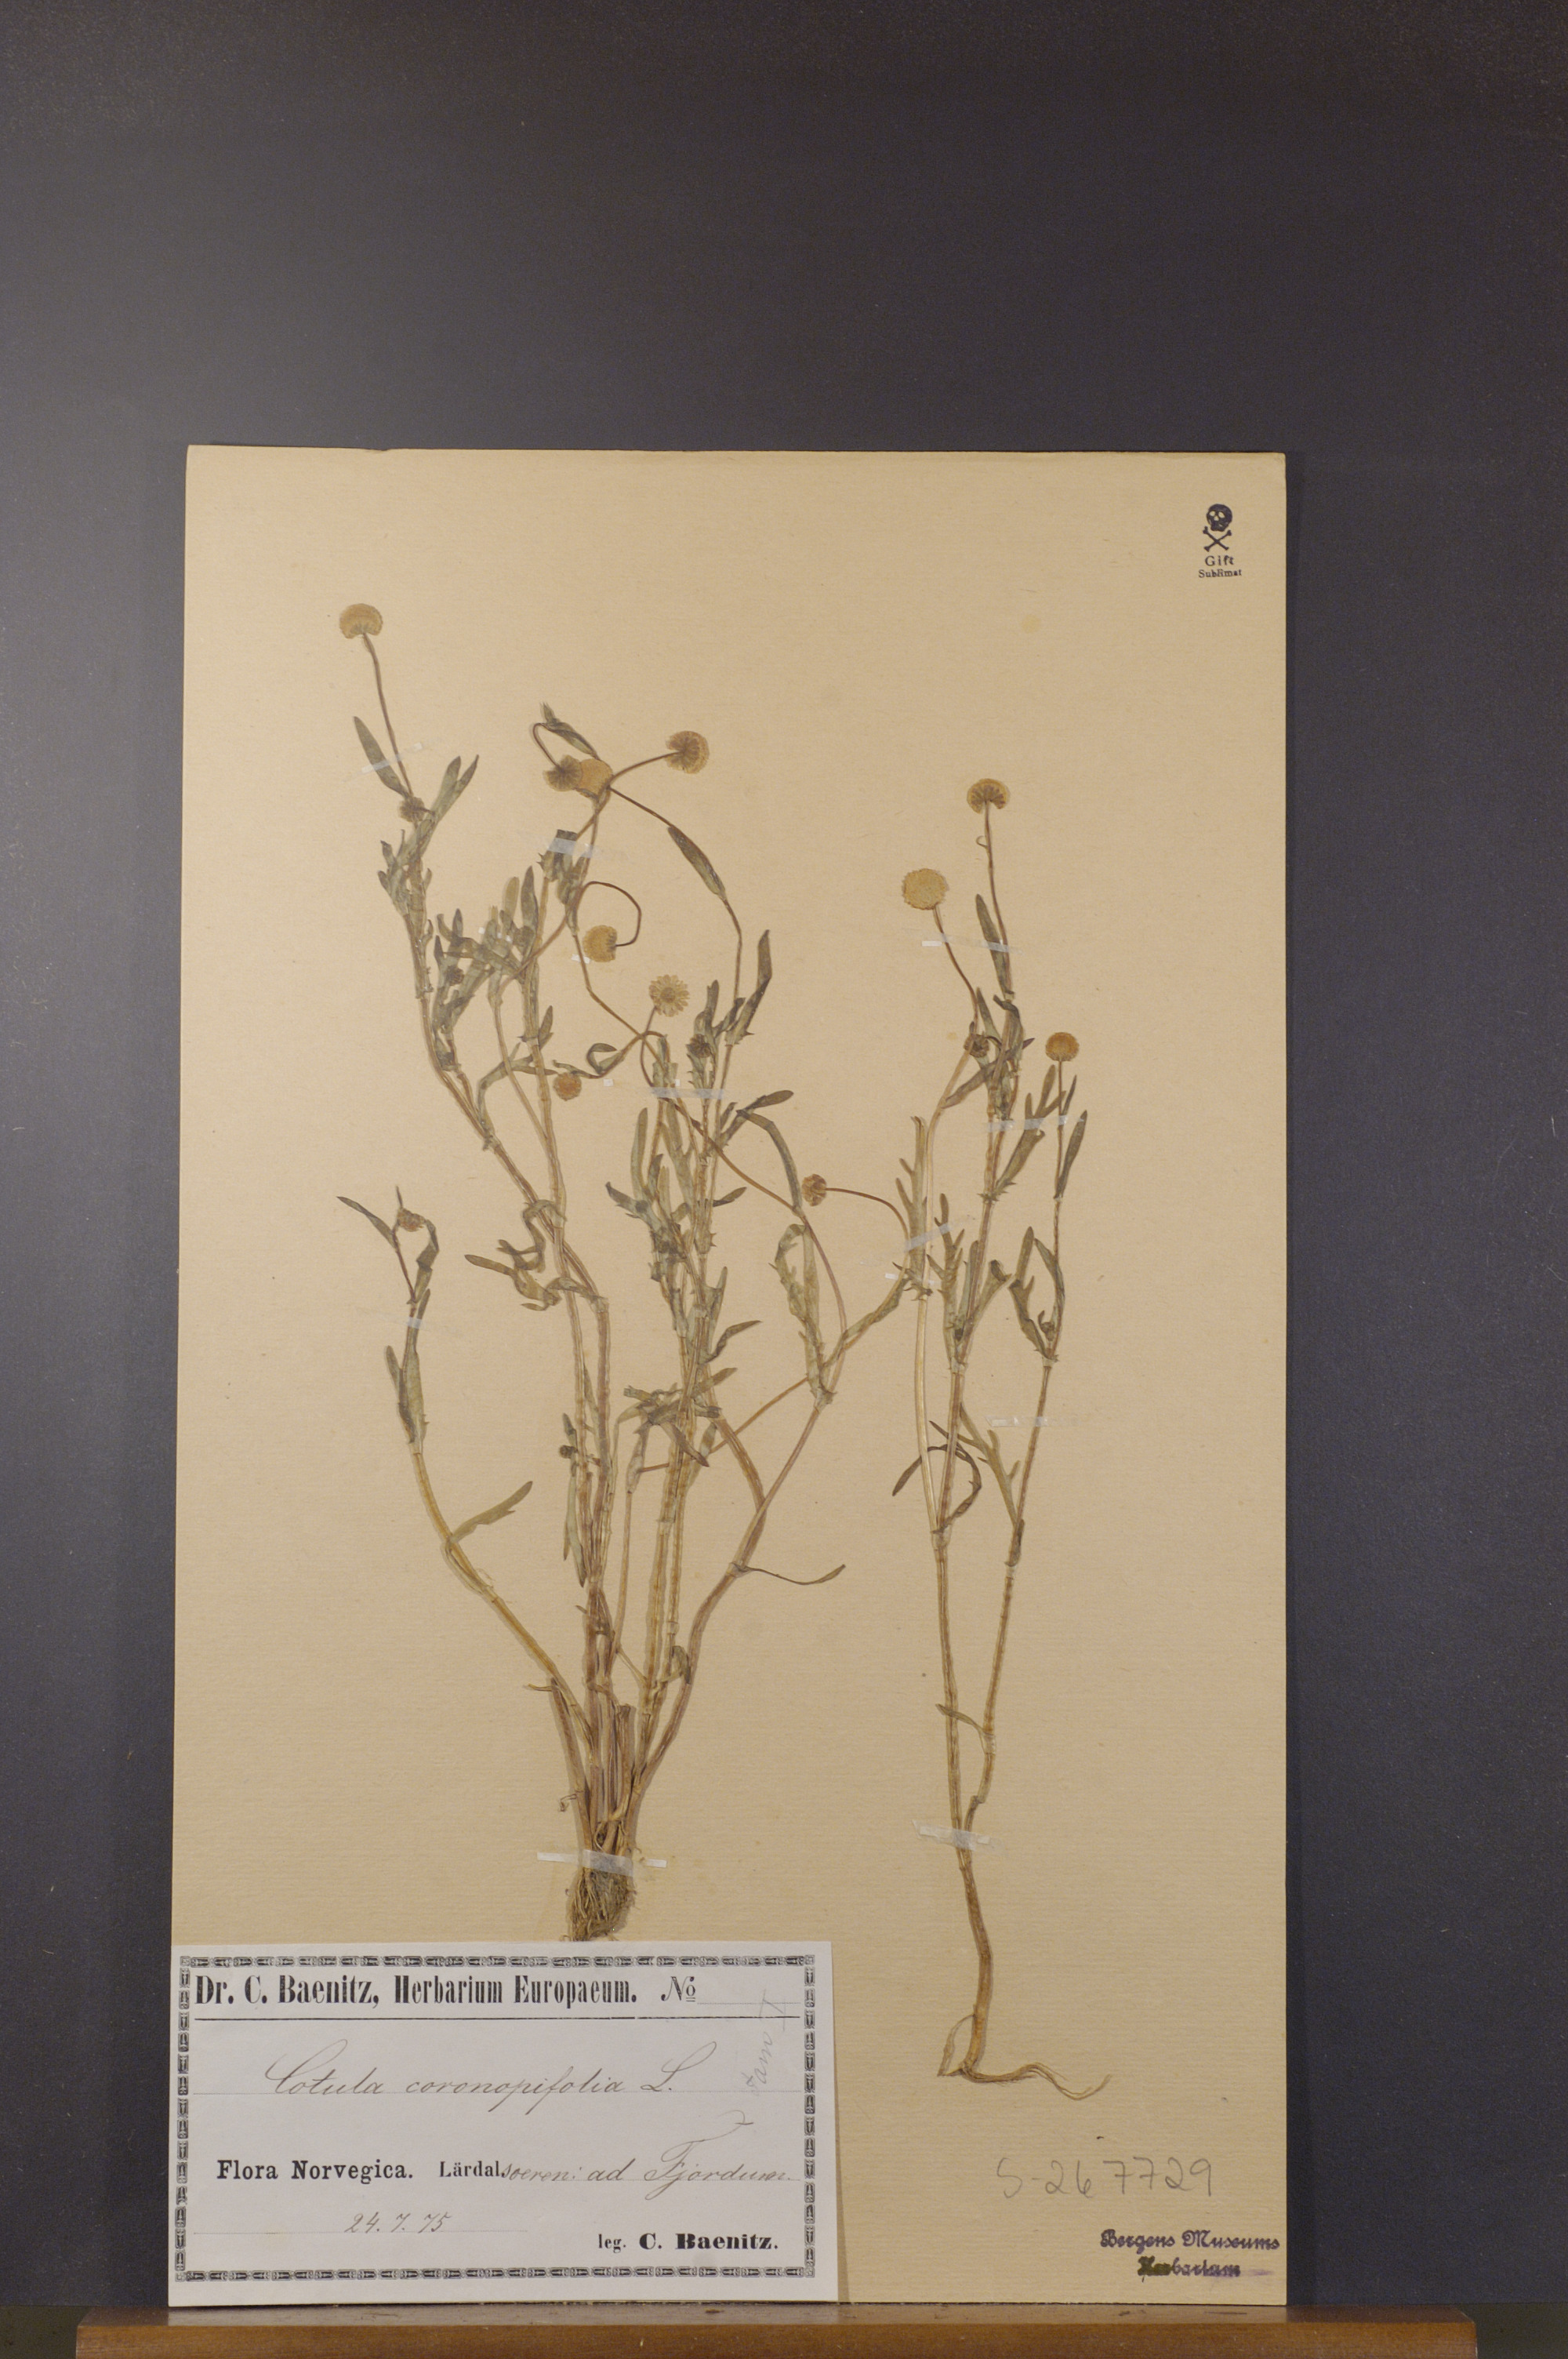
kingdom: Plantae
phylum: Tracheophyta
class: Magnoliopsida
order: Asterales
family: Asteraceae
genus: Cotula
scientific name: Cotula coronopifolia
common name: Buttonweed
